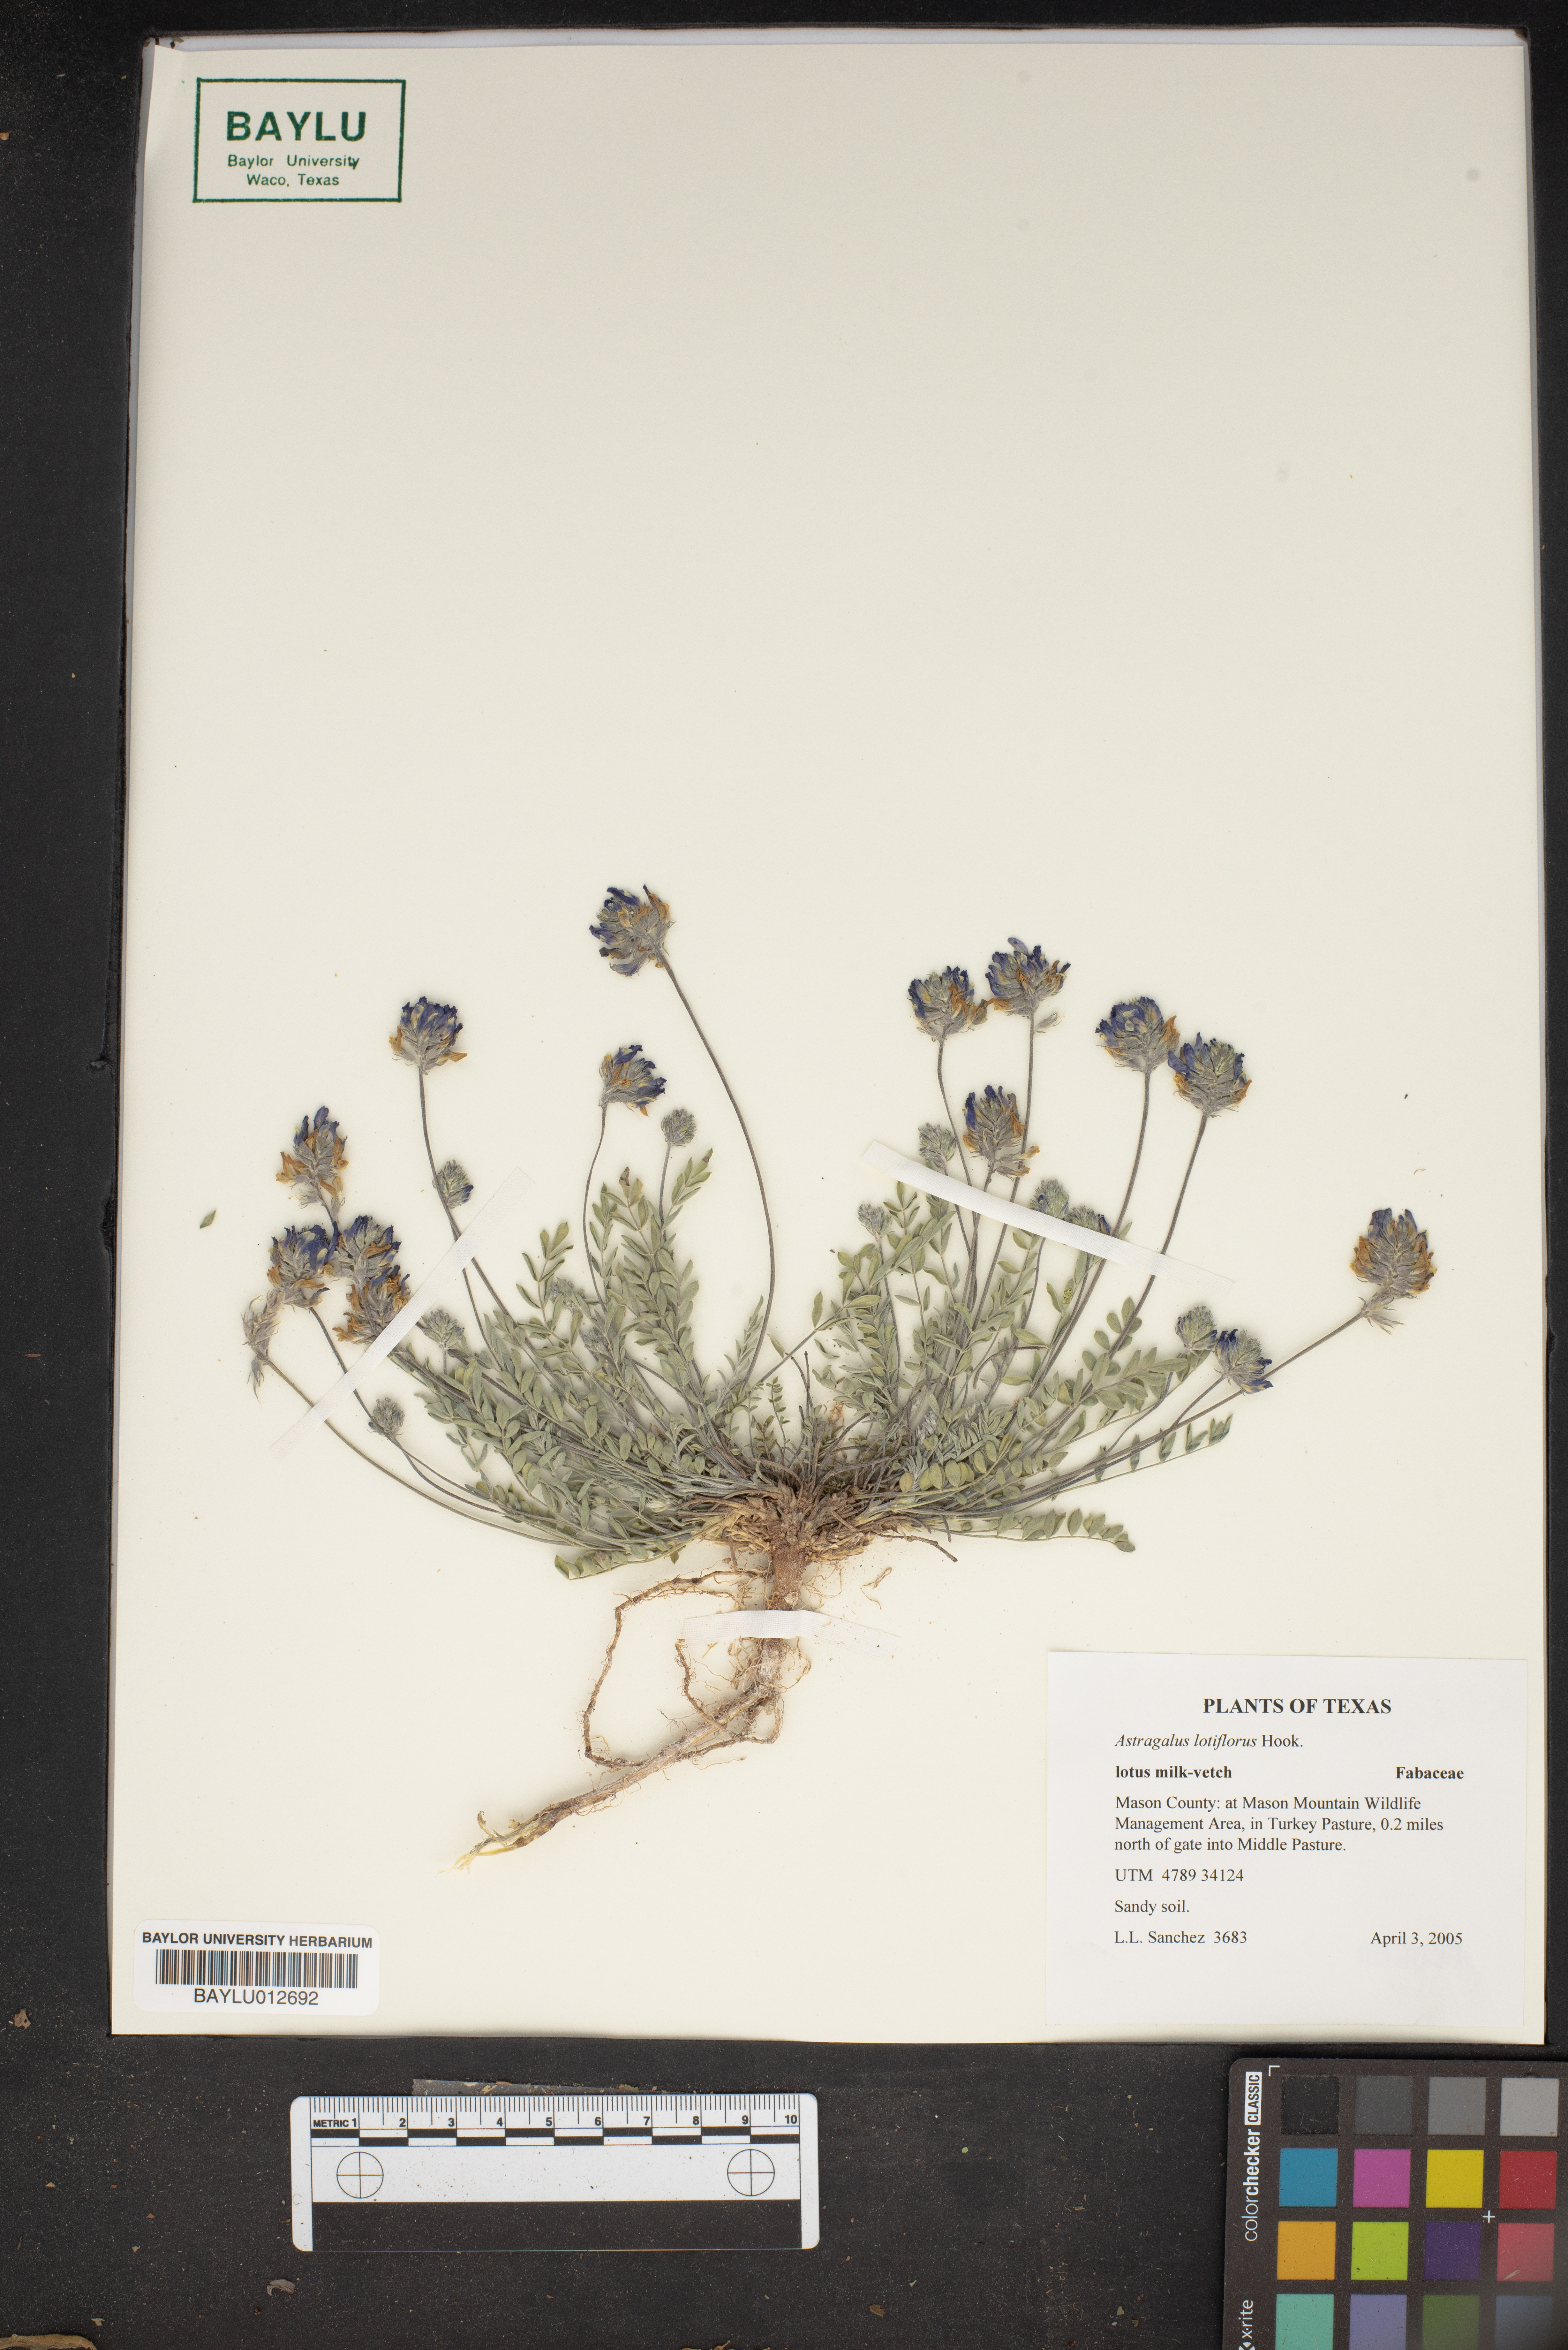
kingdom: Plantae
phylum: Tracheophyta
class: Magnoliopsida
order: Fabales
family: Fabaceae
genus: Astragalus
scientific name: Astragalus lotiflorus
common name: Lotus milk-vetch
